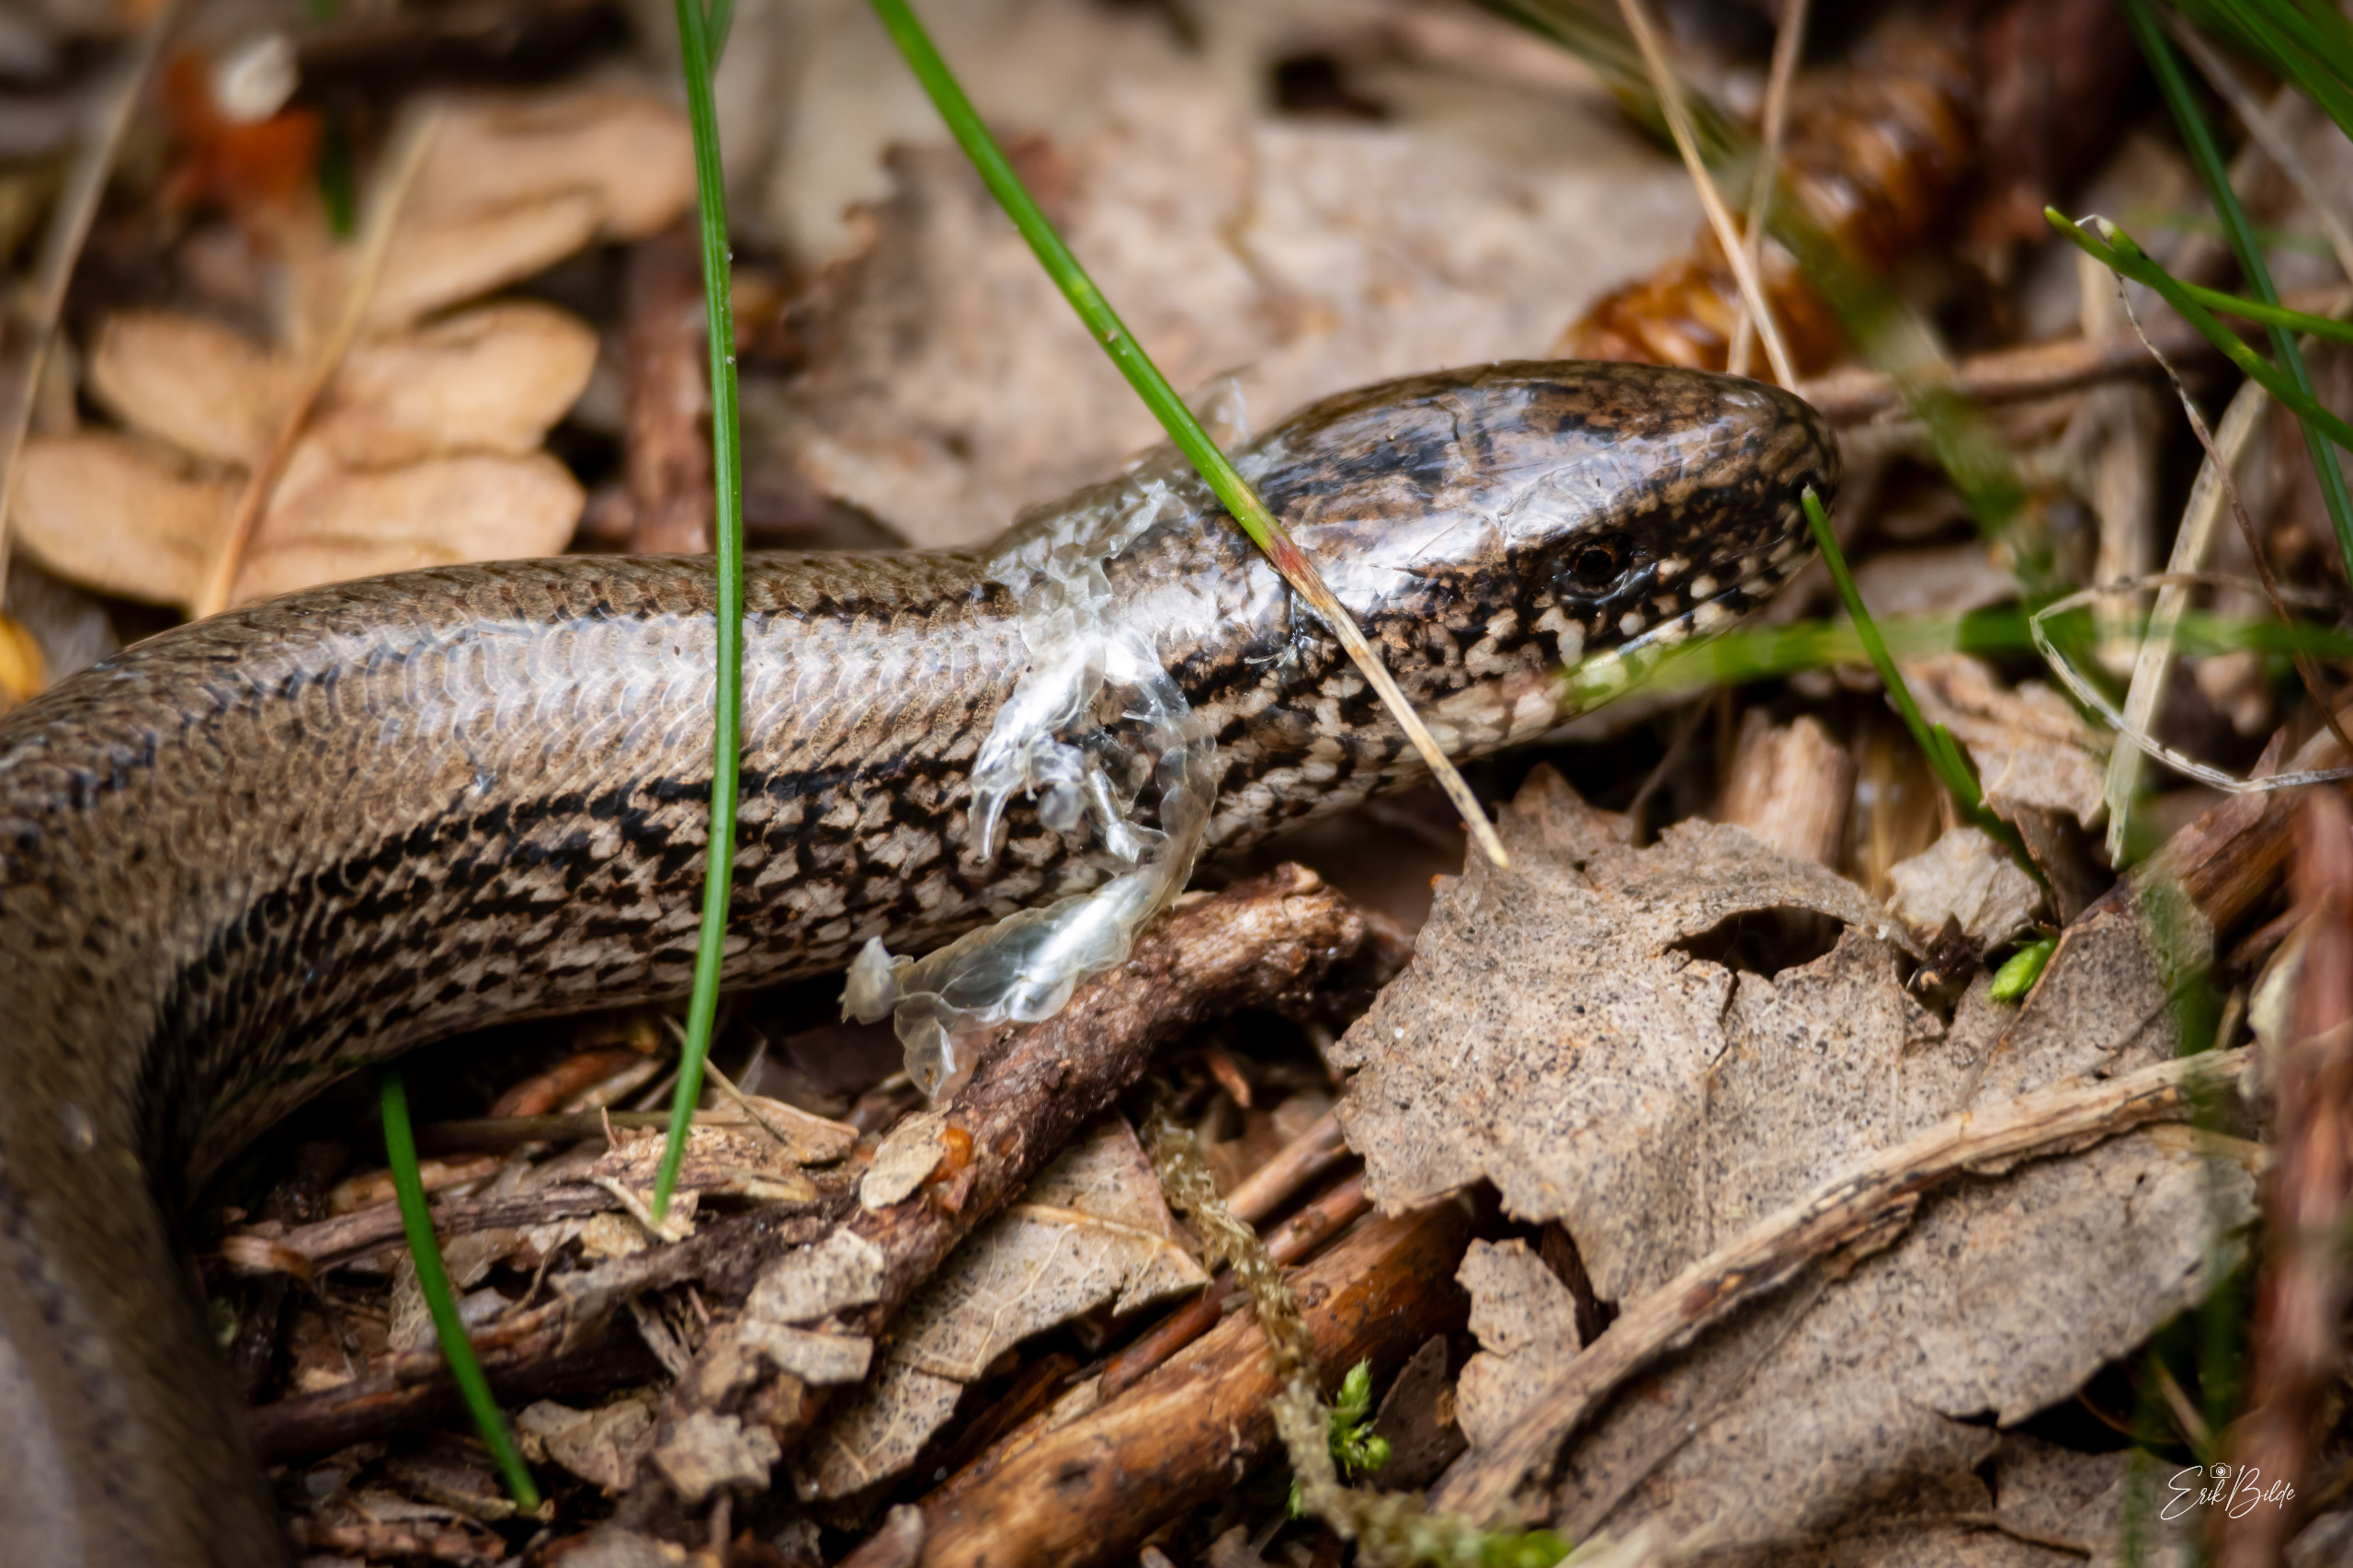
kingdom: Animalia
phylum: Chordata
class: Squamata
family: Anguidae
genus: Anguis
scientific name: Anguis fragilis
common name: Stålorm
